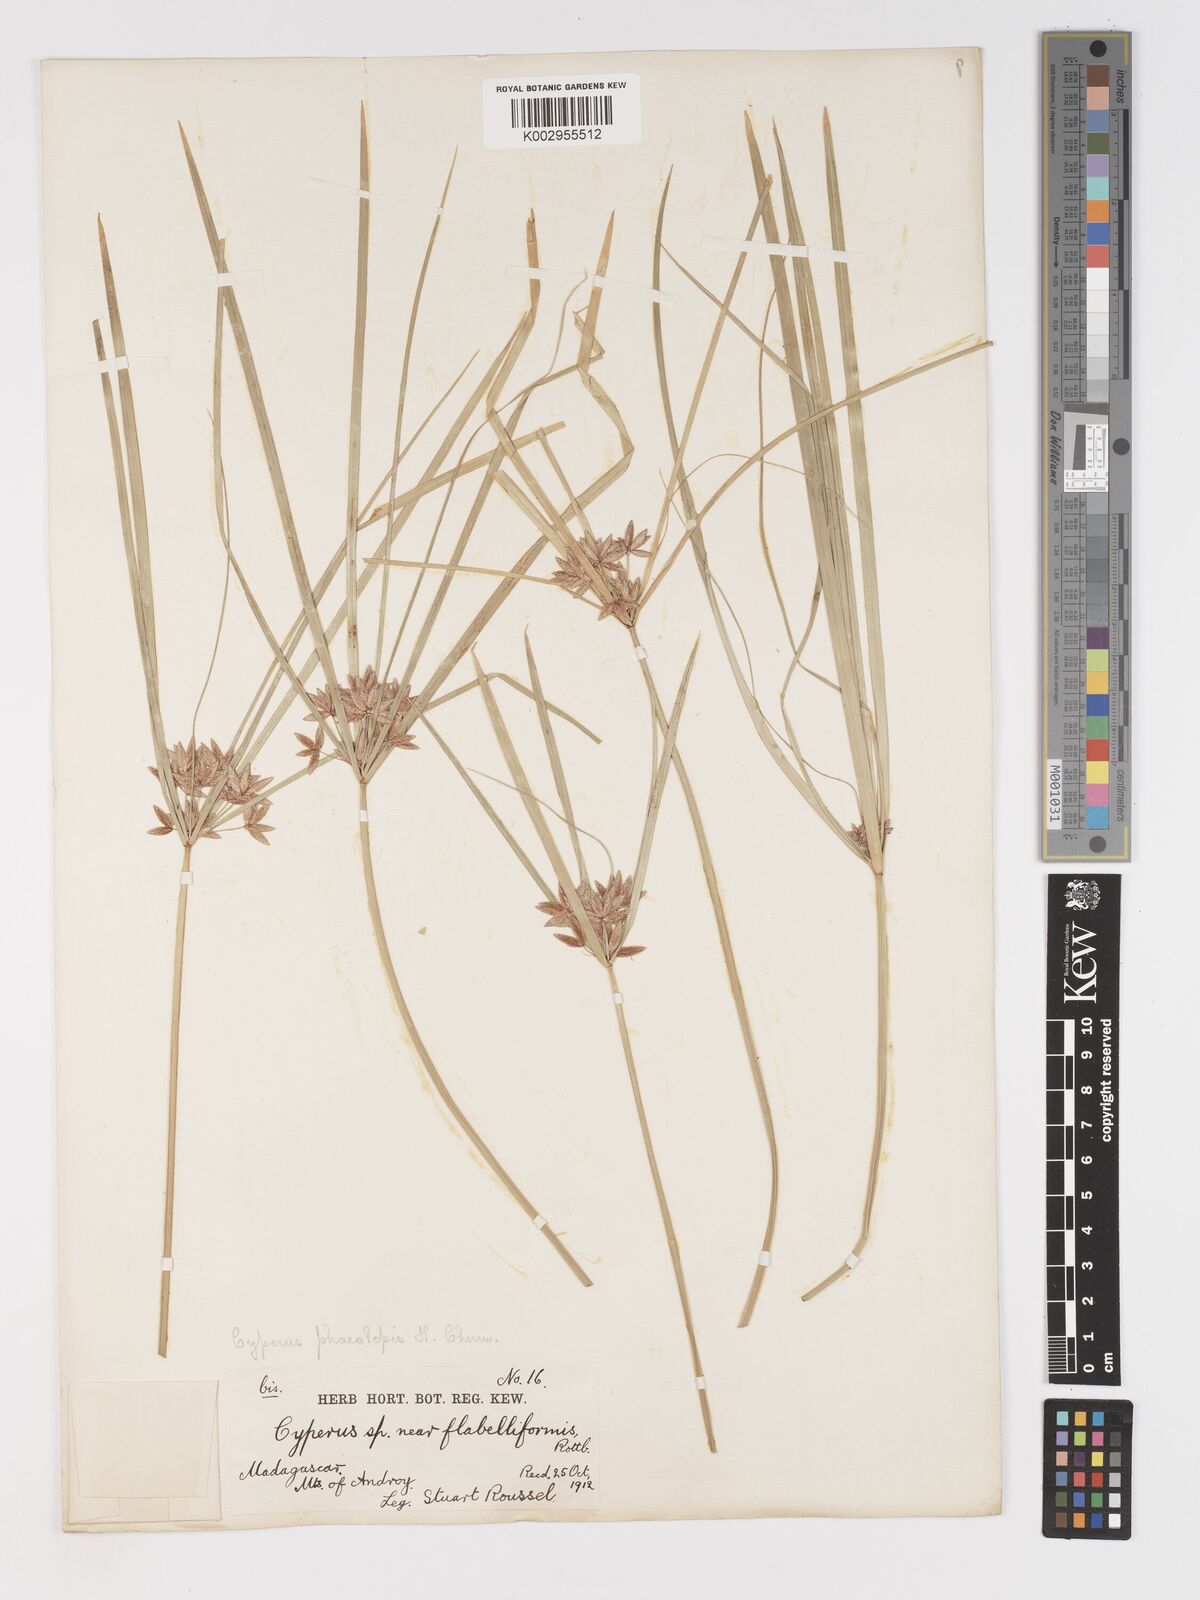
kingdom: Plantae
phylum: Tracheophyta
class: Liliopsida
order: Poales
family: Cyperaceae
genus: Cyperus
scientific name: Cyperus phaeolepis
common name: Madagascar flatsedge
